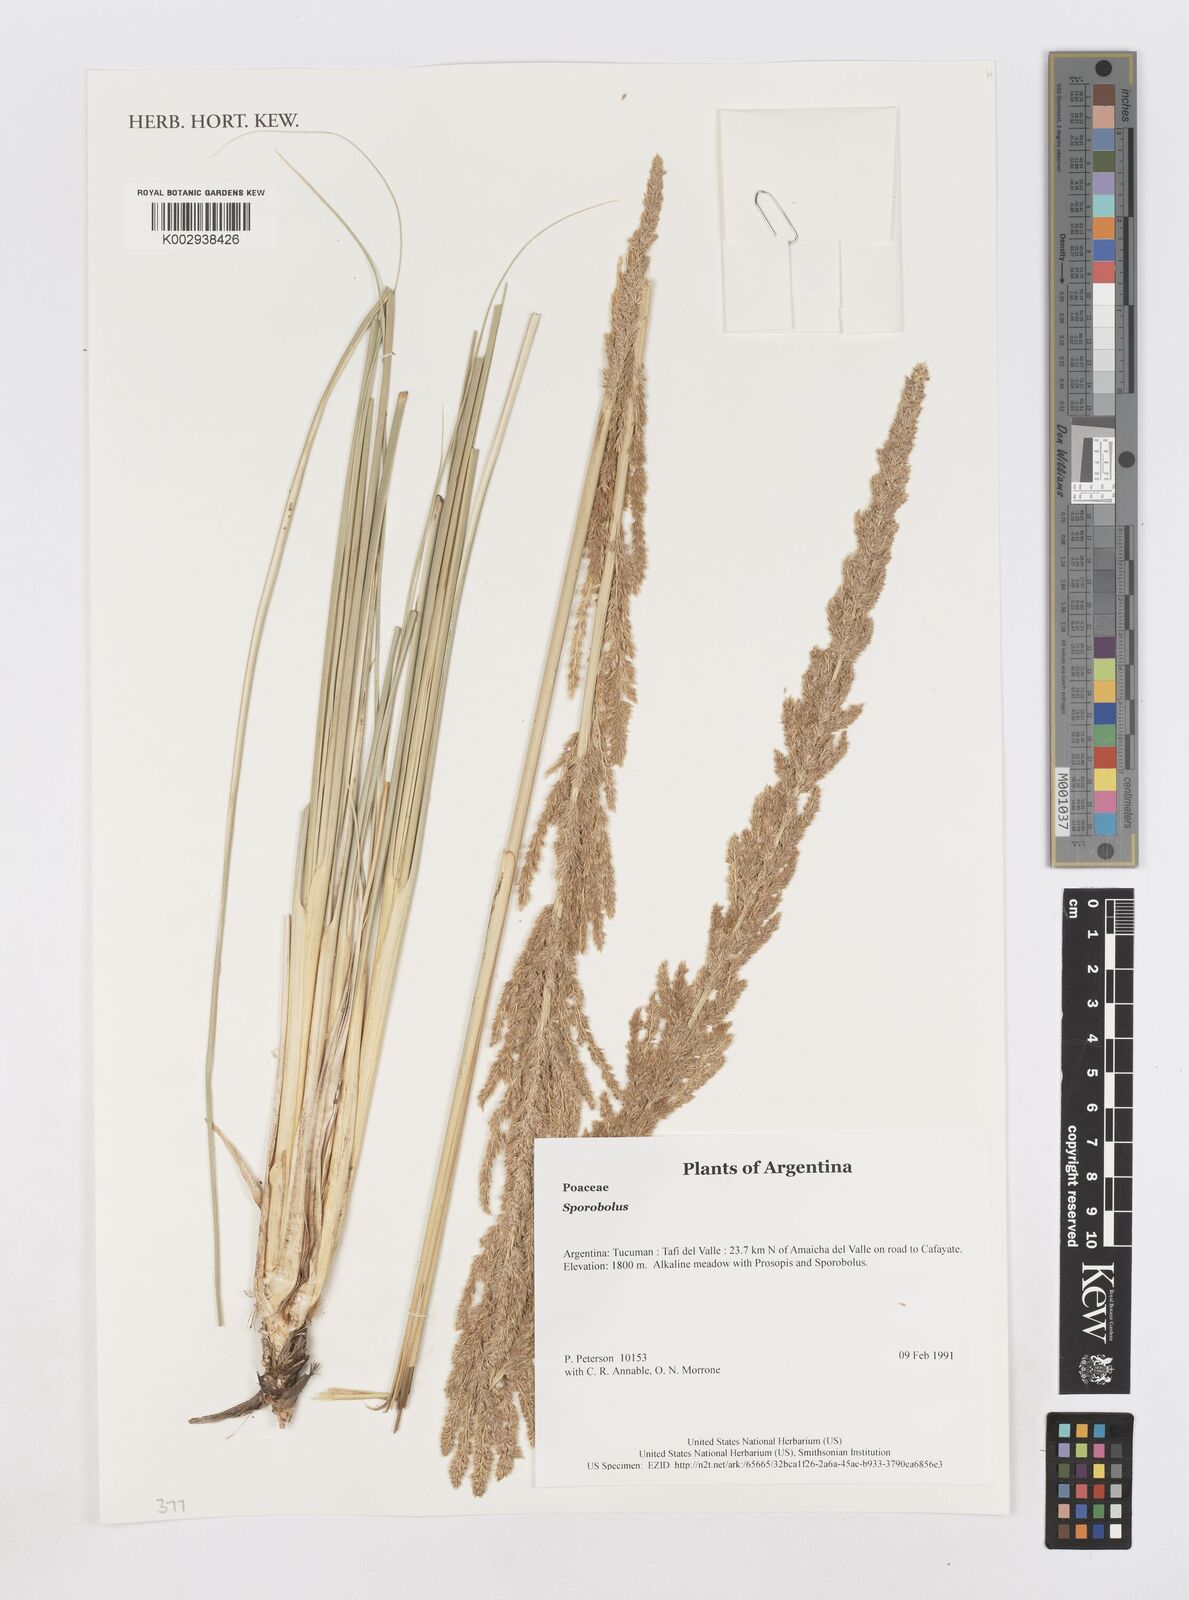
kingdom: Plantae
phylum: Tracheophyta
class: Liliopsida
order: Poales
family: Poaceae
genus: Sporobolus
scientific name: Sporobolus
